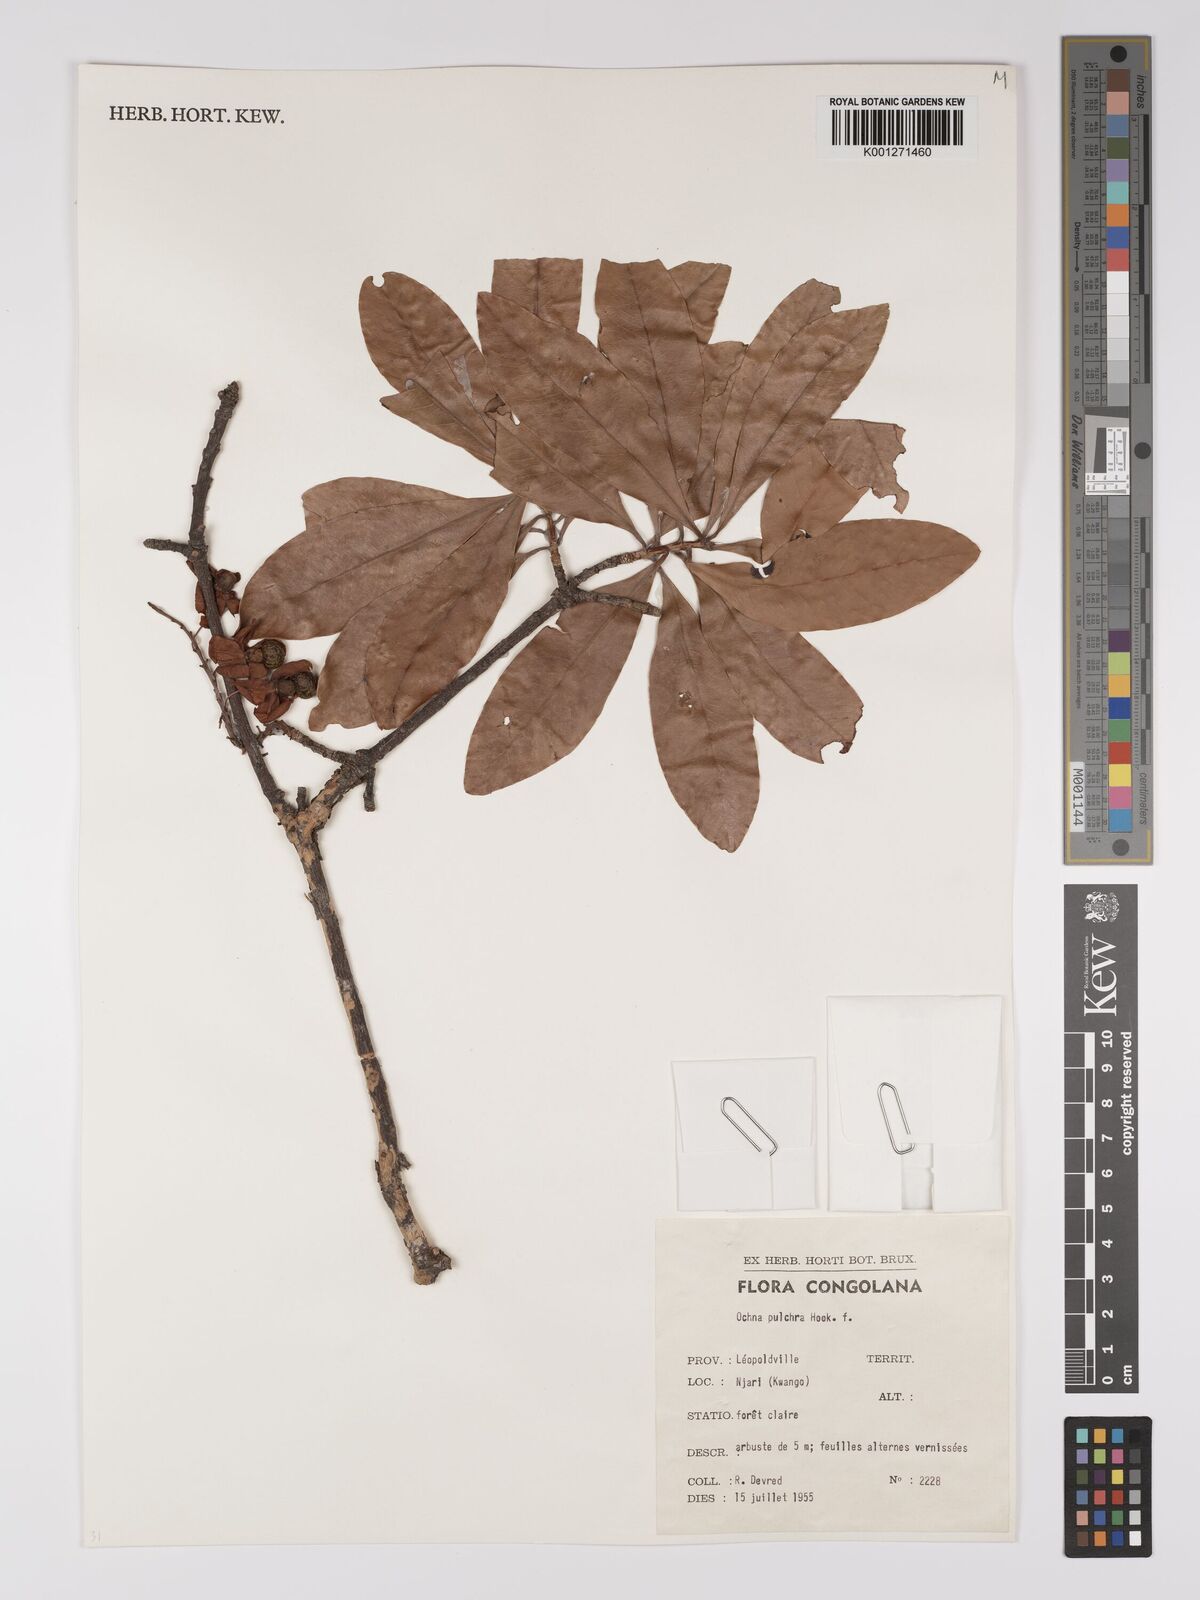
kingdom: Plantae
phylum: Tracheophyta
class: Magnoliopsida
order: Malpighiales
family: Ochnaceae
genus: Ochna
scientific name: Ochna pulchra
